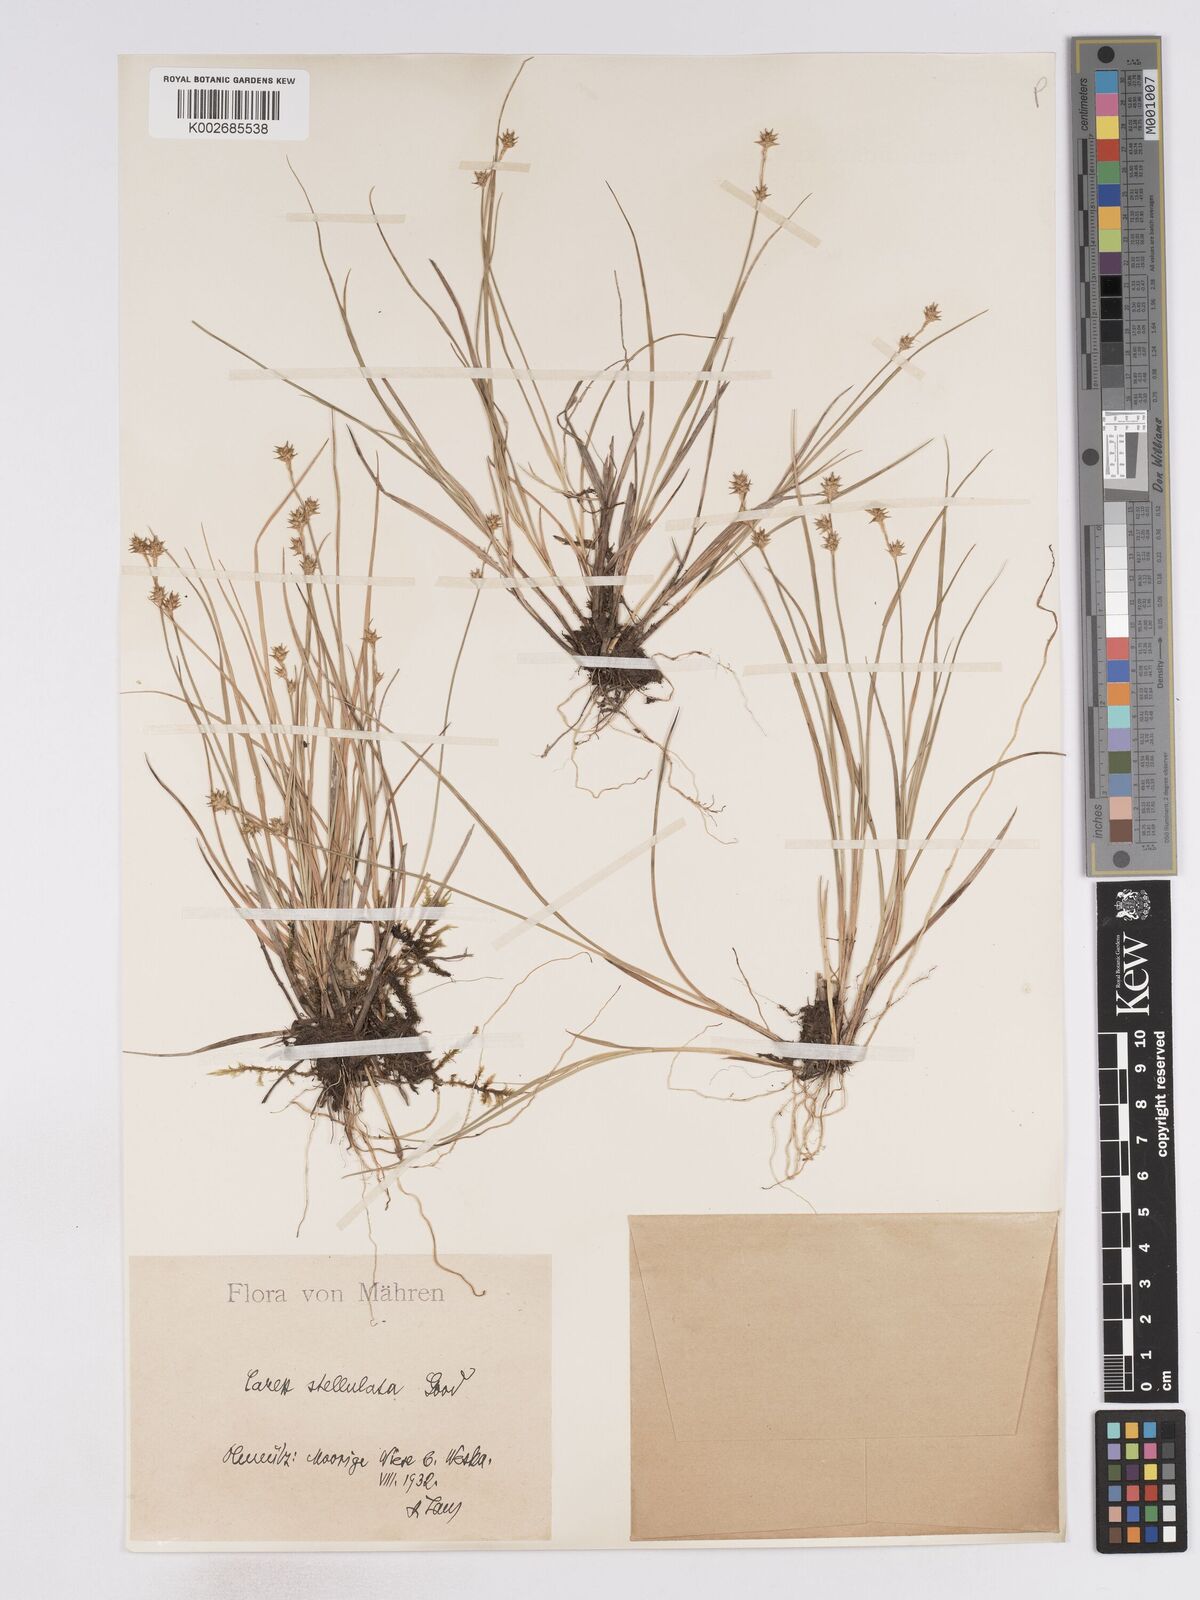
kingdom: Plantae
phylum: Tracheophyta
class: Liliopsida
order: Poales
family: Cyperaceae
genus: Carex
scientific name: Carex echinata
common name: Star sedge
